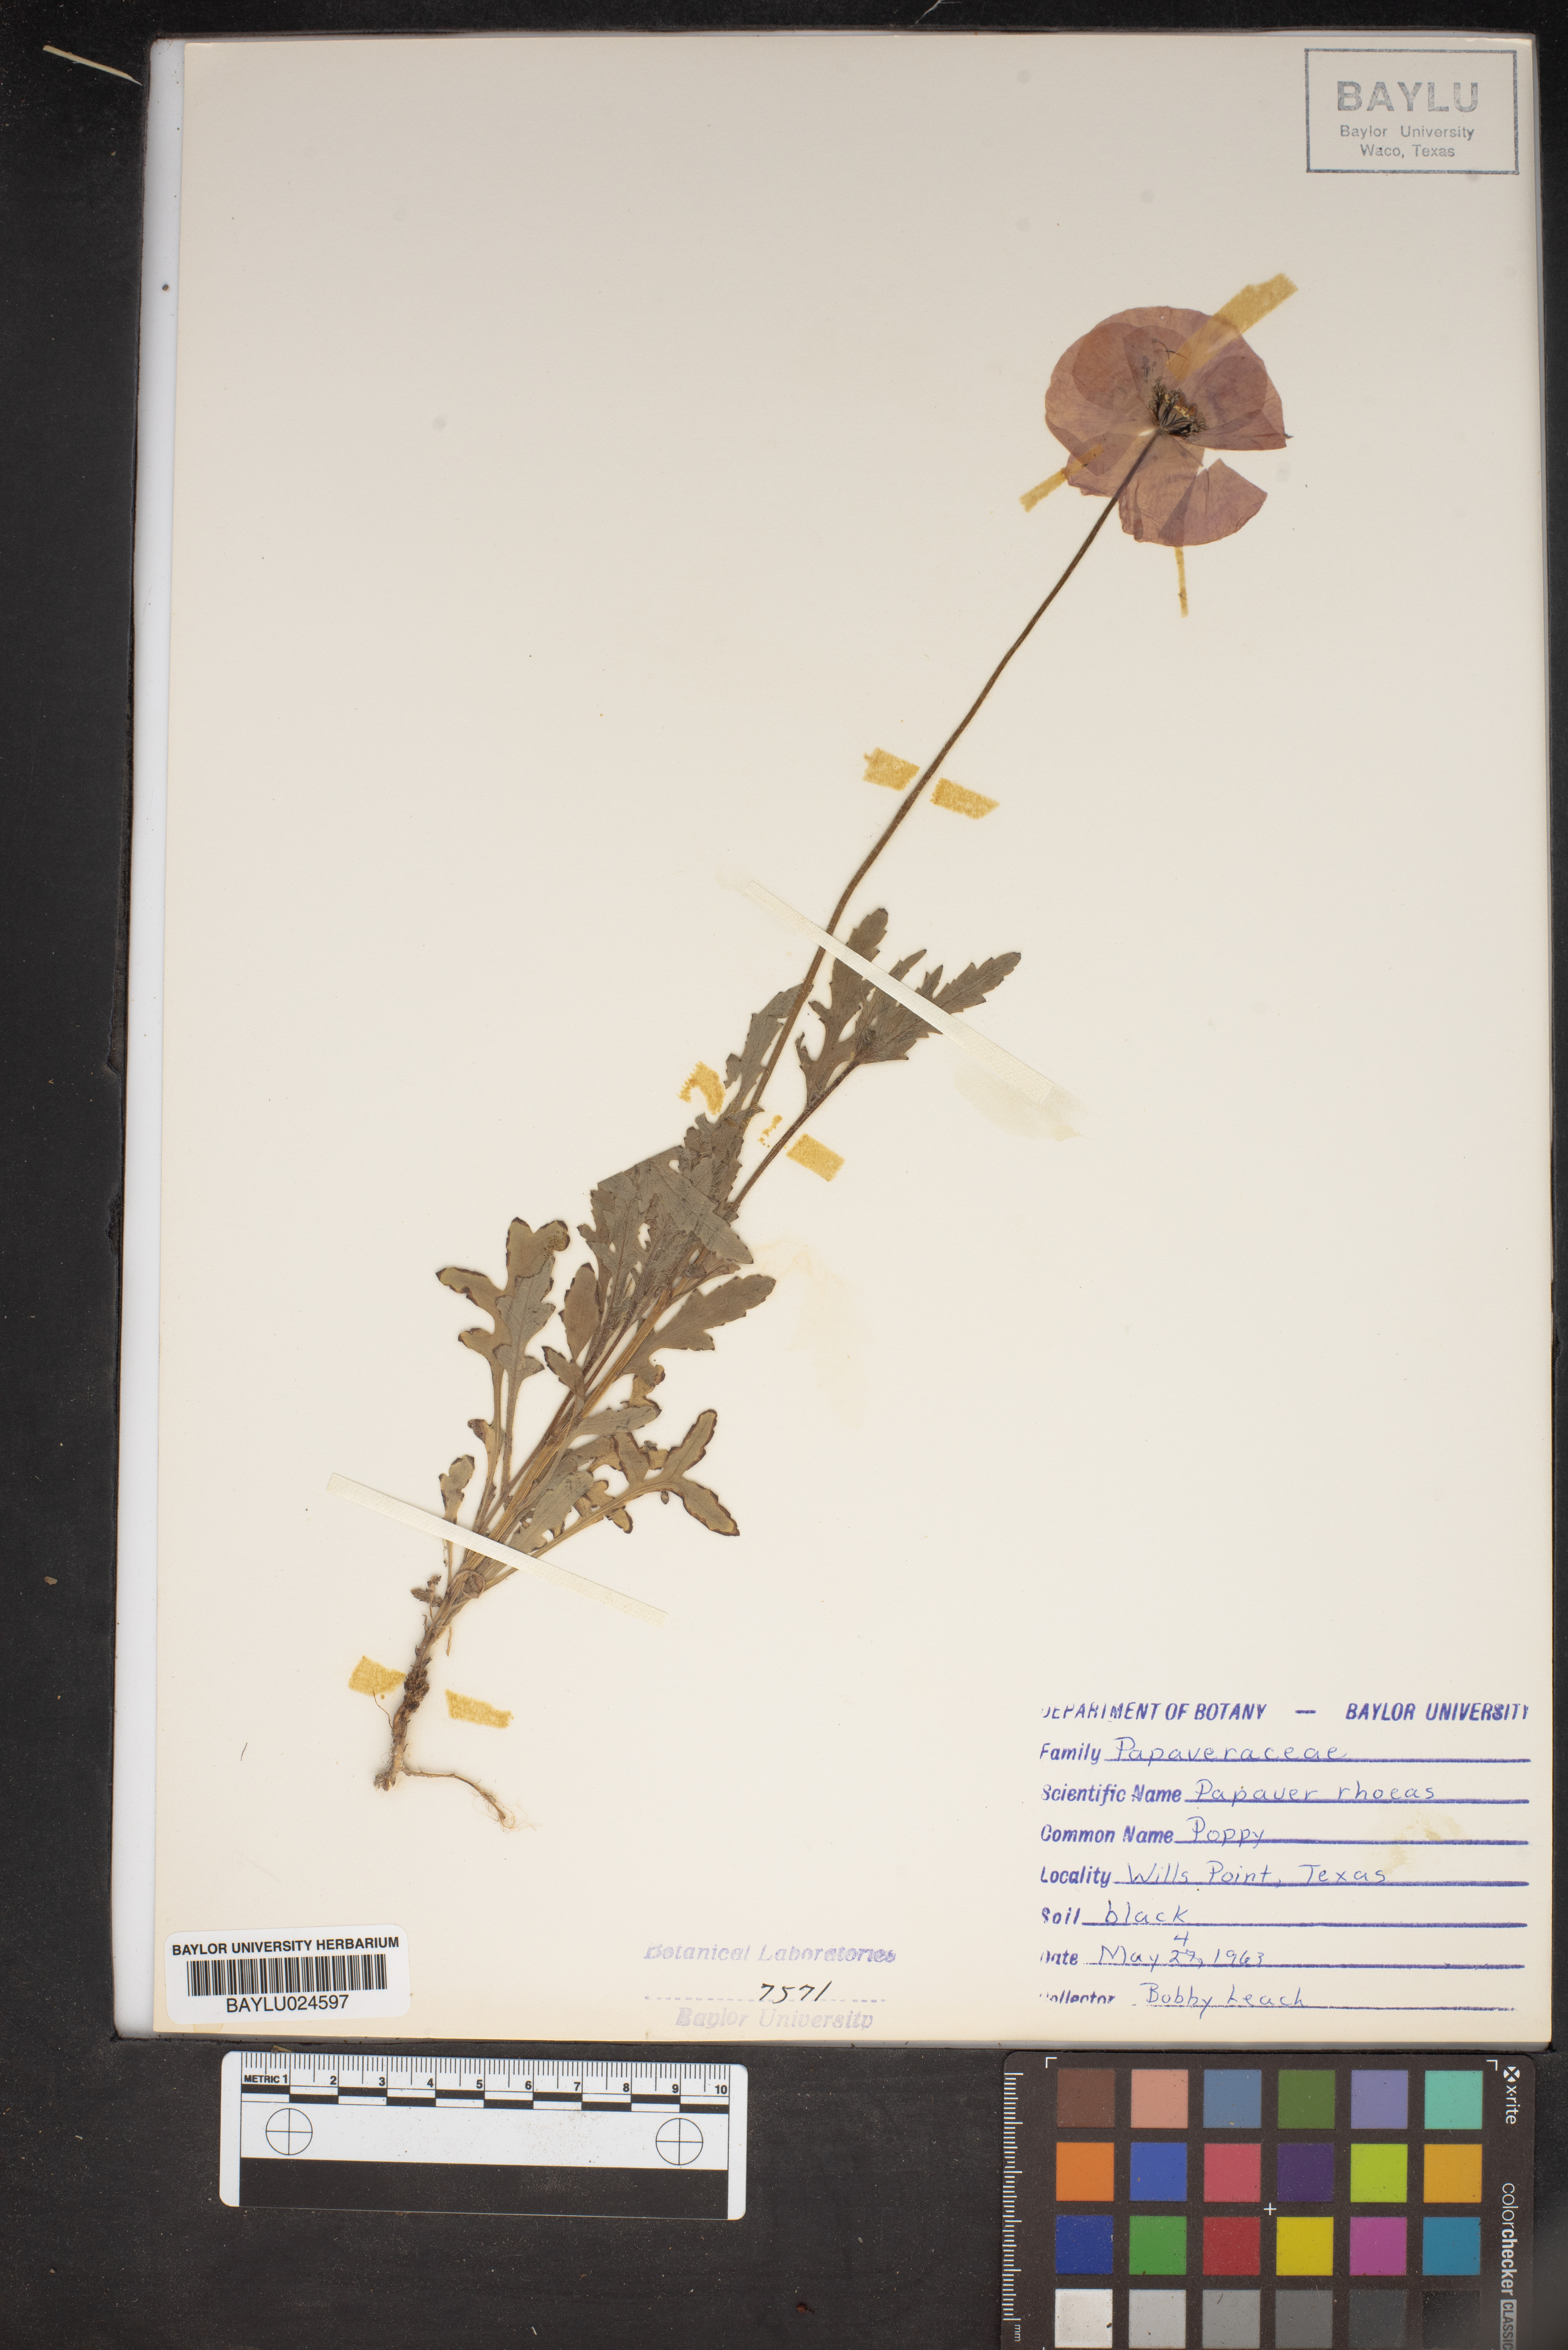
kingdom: Plantae
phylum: Tracheophyta
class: Magnoliopsida
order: Ranunculales
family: Papaveraceae
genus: Papaver
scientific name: Papaver rhoeas
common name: Corn poppy
